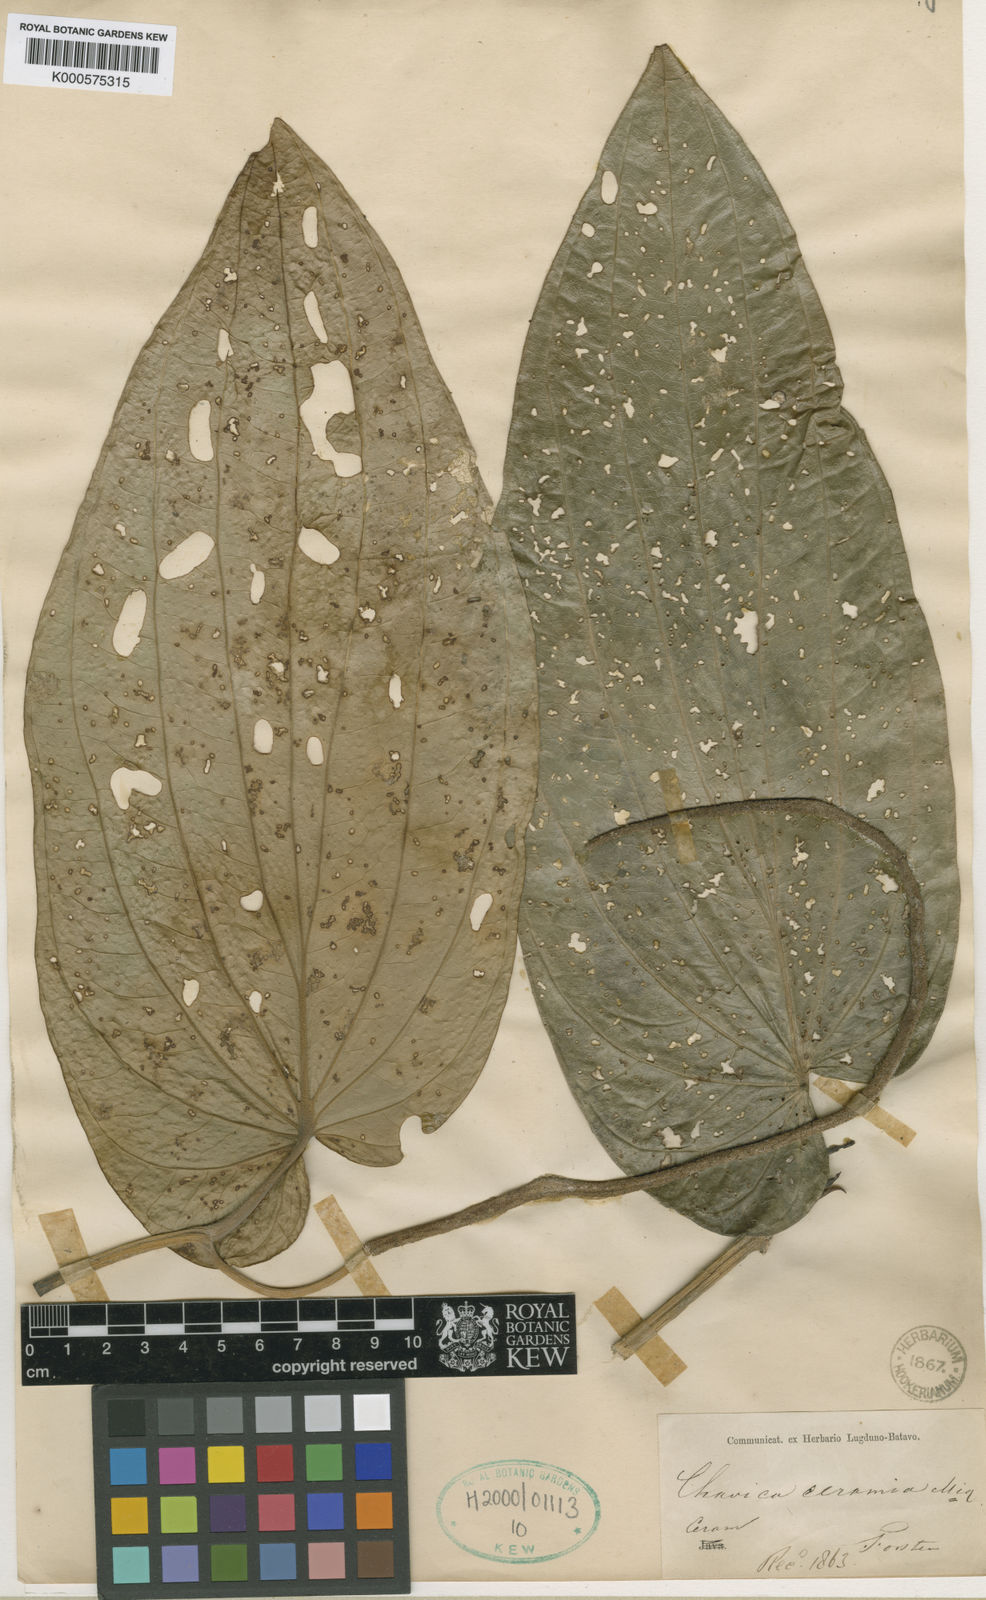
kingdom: Plantae
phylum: Tracheophyta
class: Magnoliopsida
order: Piperales
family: Piperaceae
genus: Piper
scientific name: Piper ceramicum
